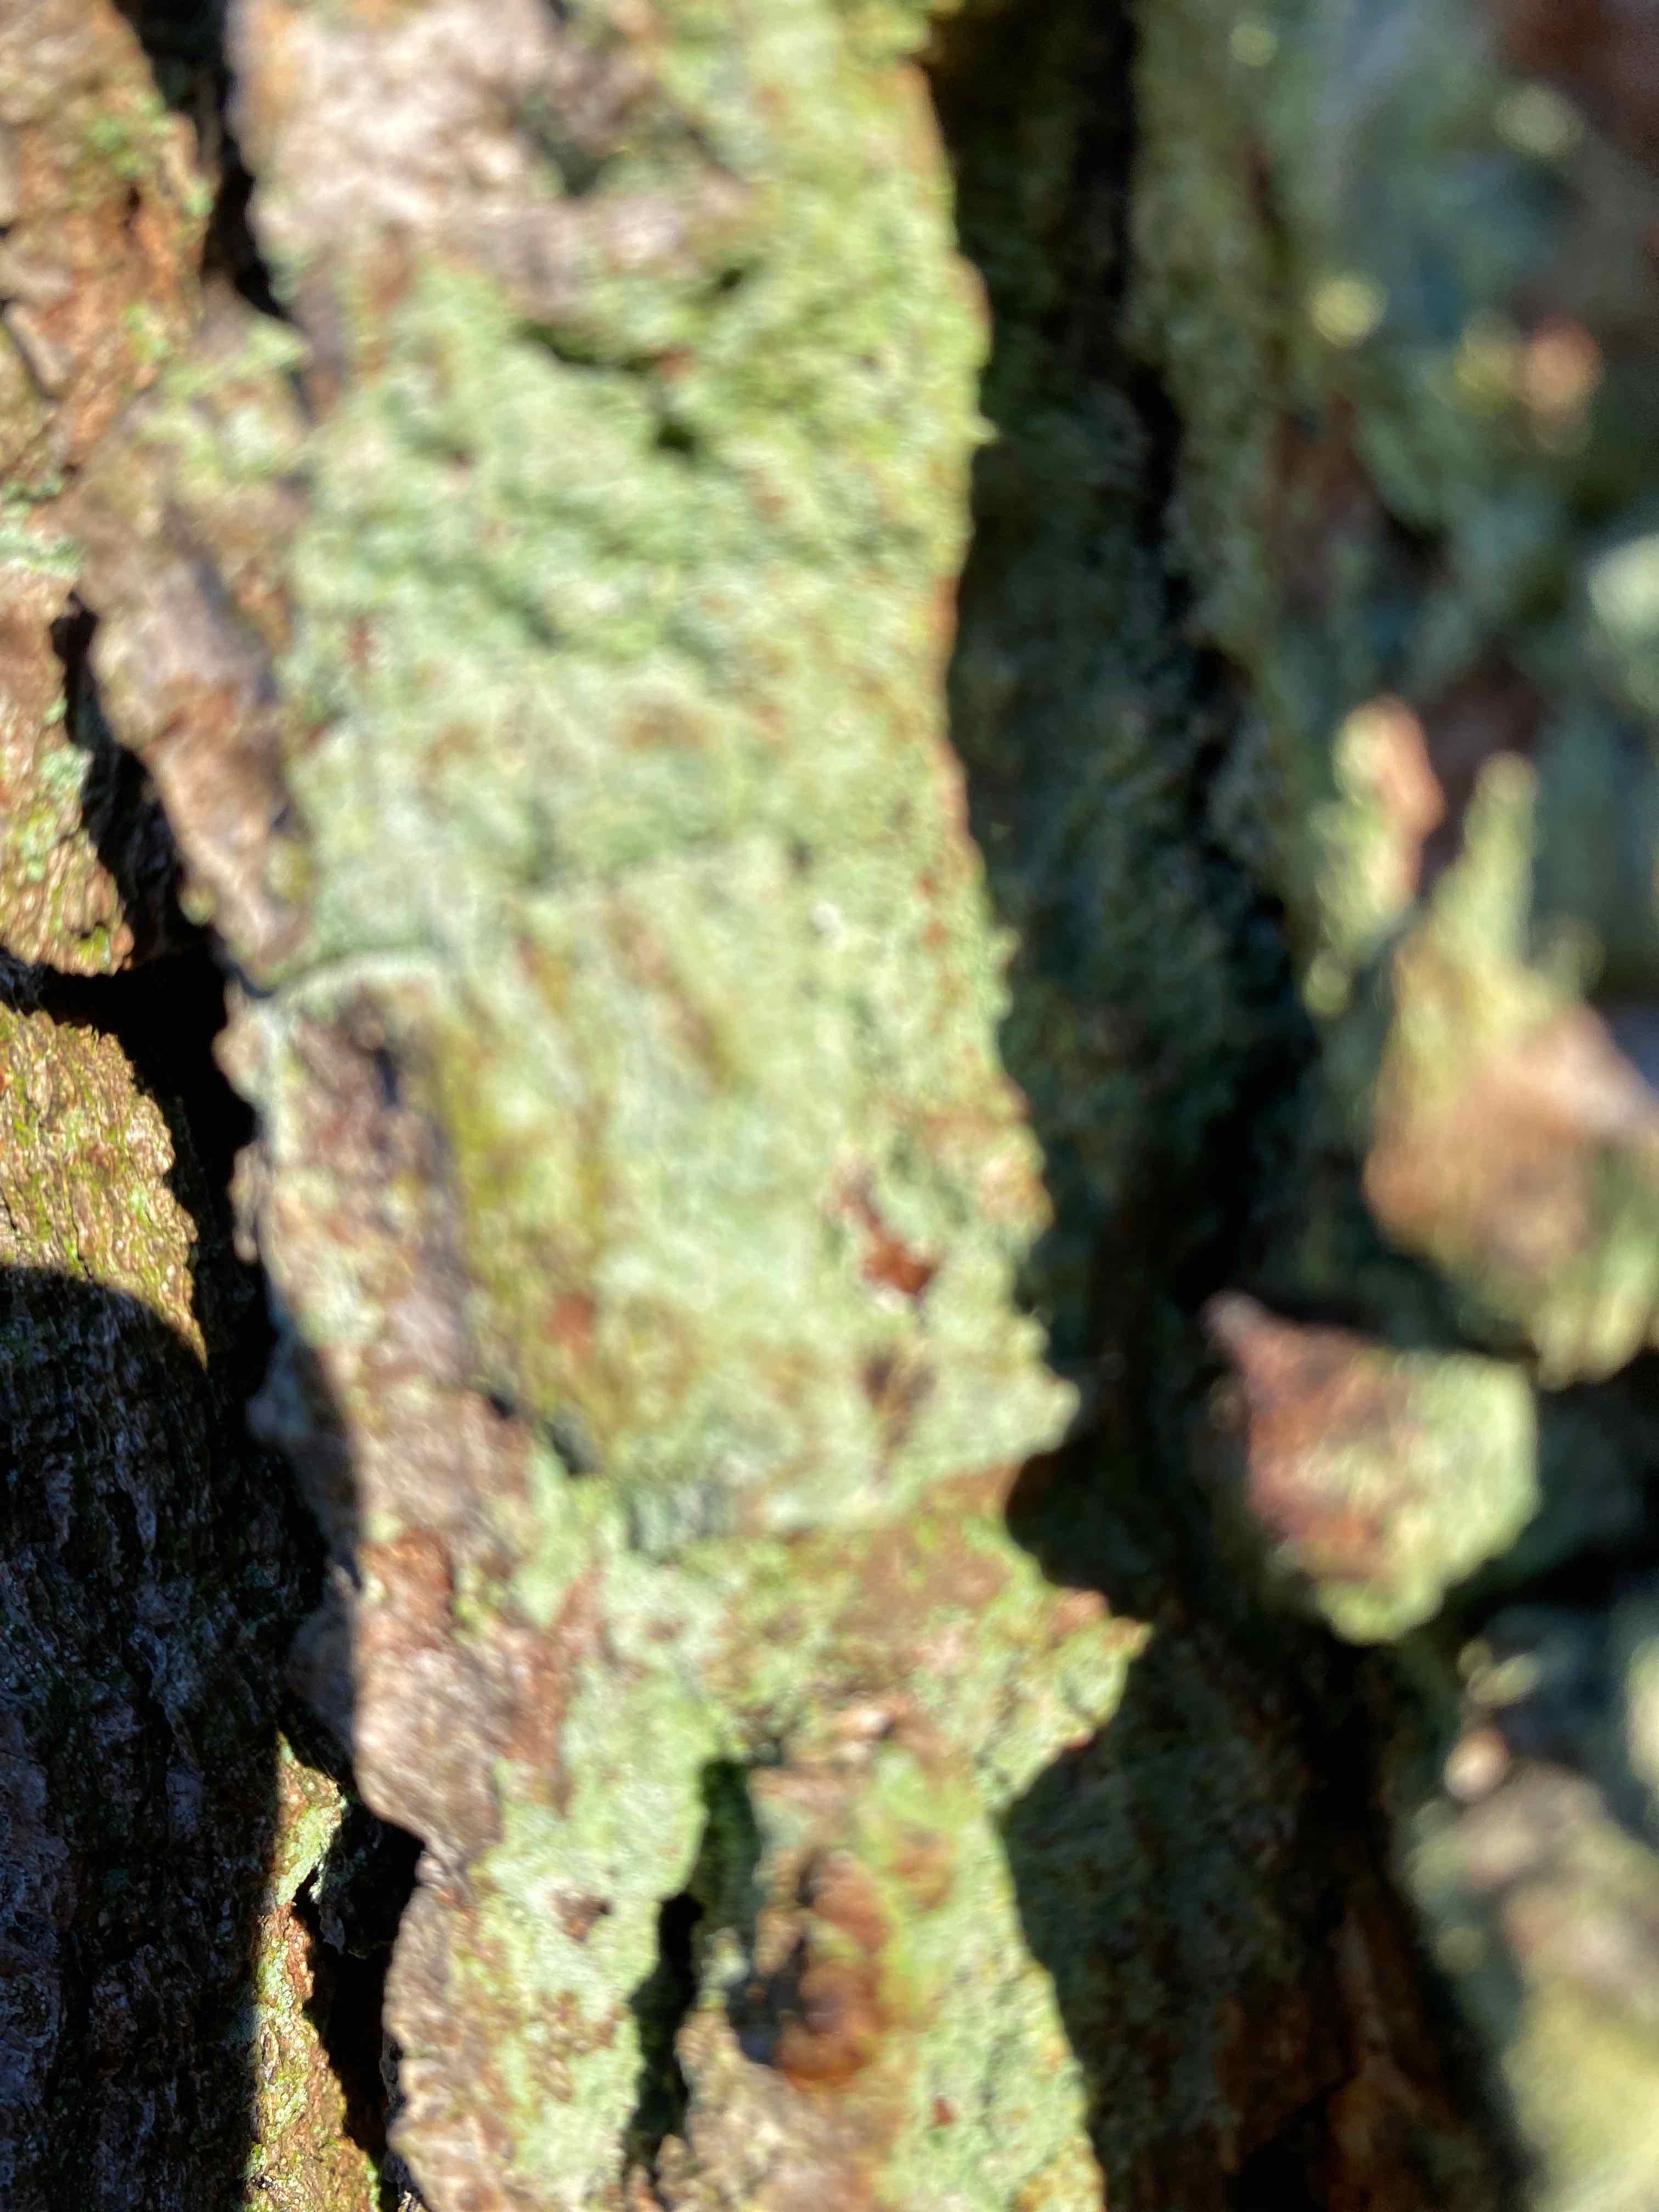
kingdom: Fungi
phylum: Ascomycota
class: Lecanoromycetes
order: Lecanorales
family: Stereocaulaceae
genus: Lepraria
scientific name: Lepraria incana
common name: almindelig støvlav
